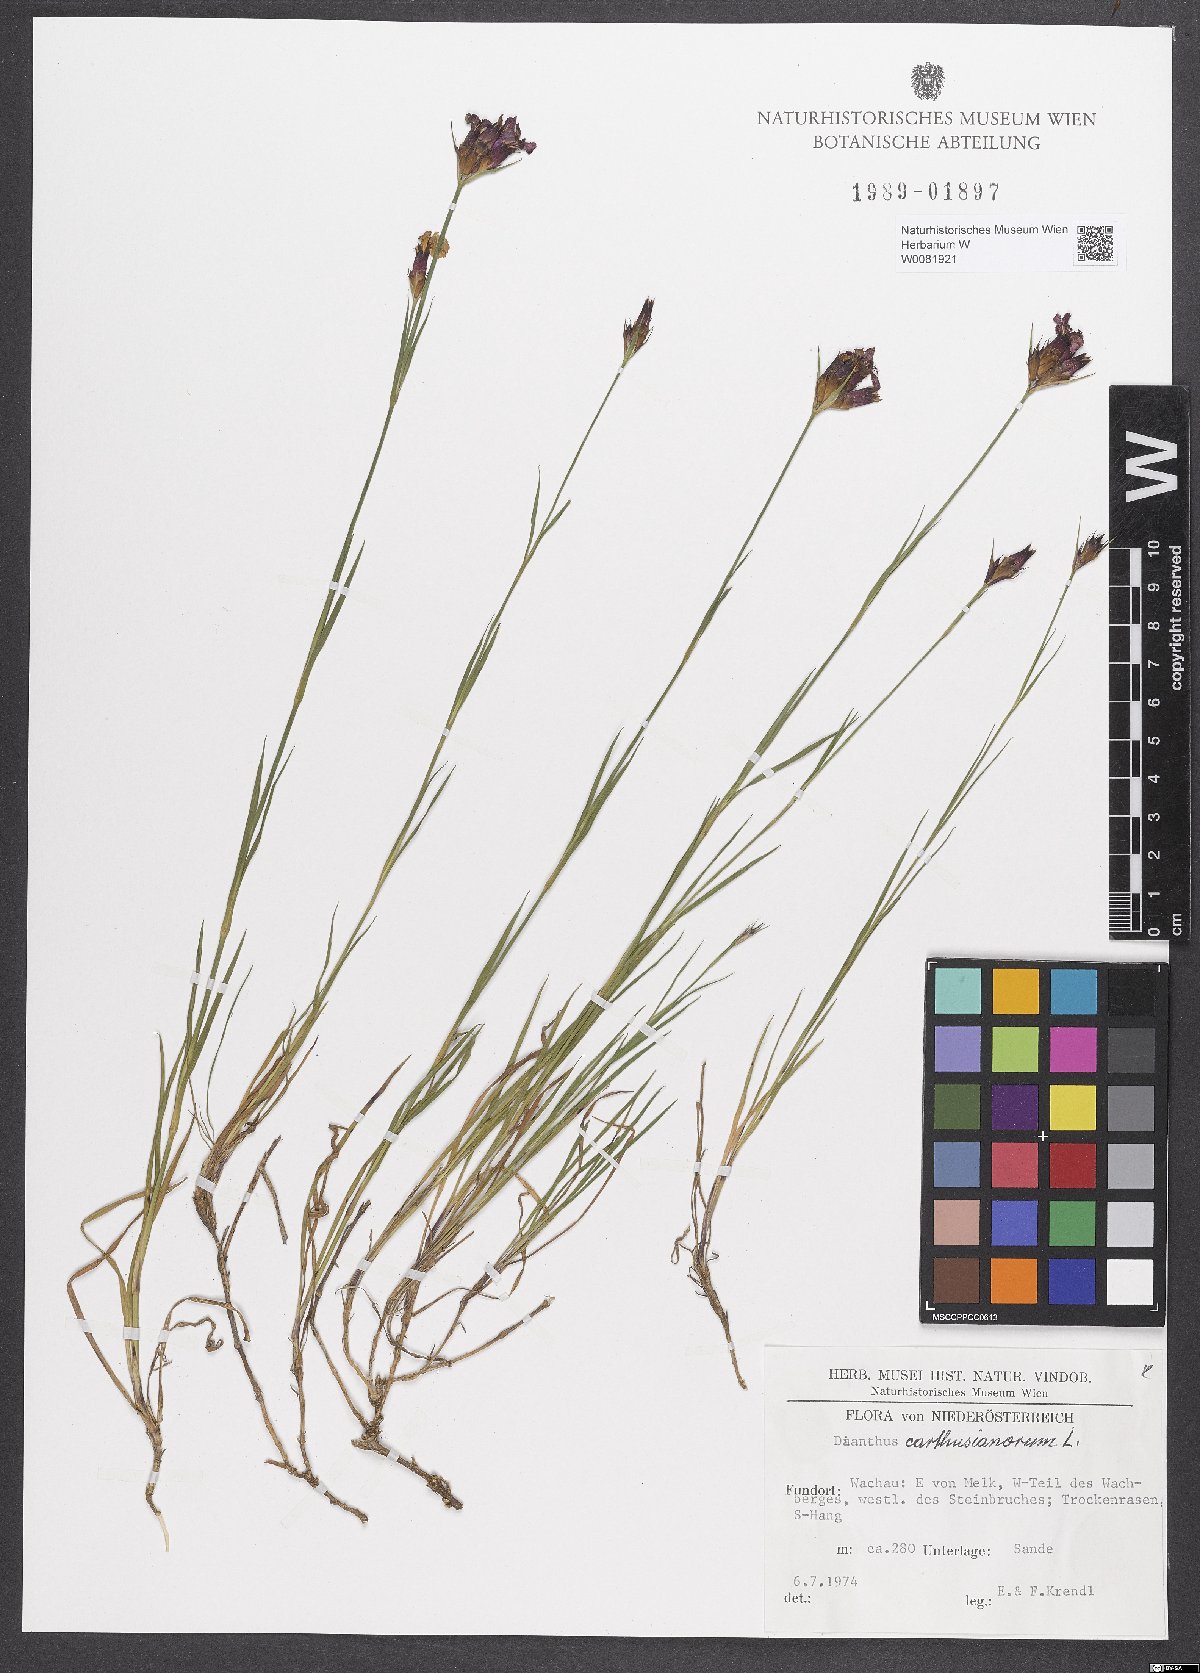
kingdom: Plantae
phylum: Tracheophyta
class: Magnoliopsida
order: Caryophyllales
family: Caryophyllaceae
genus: Dianthus
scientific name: Dianthus carthusianorum
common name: Carthusian pink
